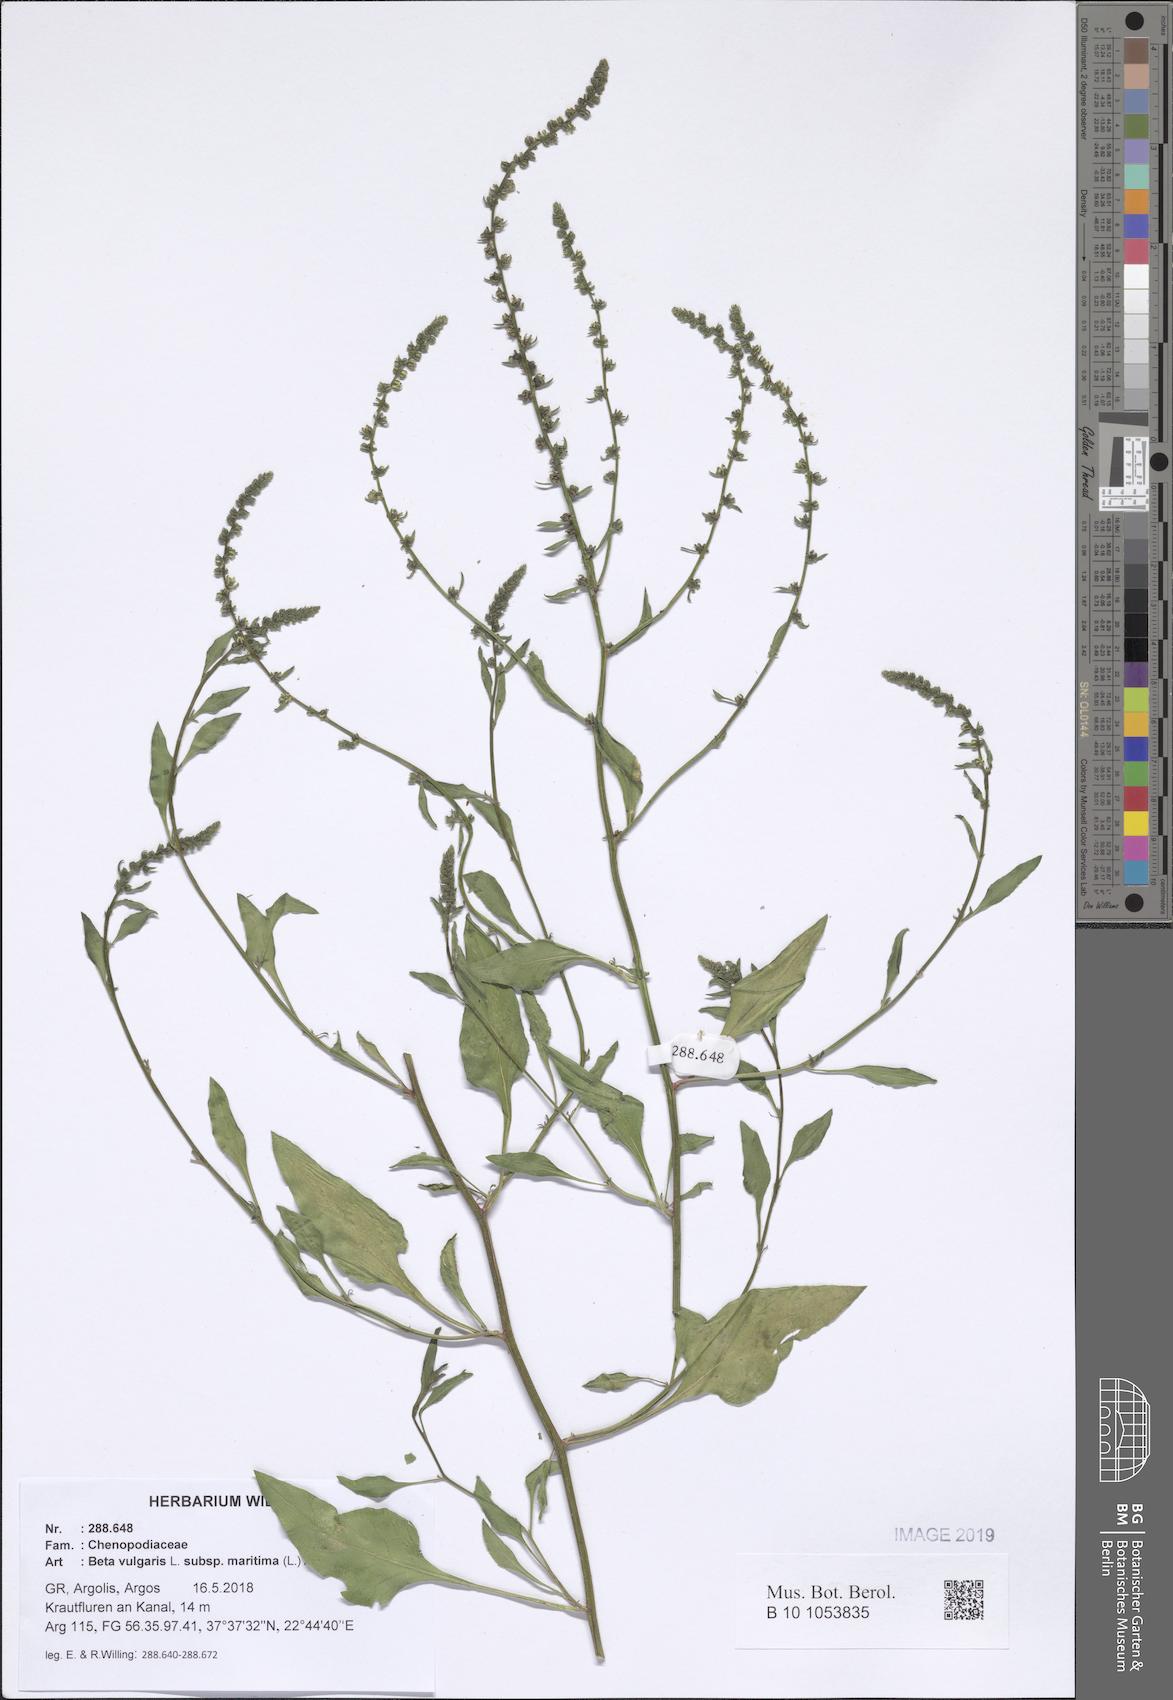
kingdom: Plantae
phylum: Tracheophyta
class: Magnoliopsida
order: Caryophyllales
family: Amaranthaceae
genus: Beta
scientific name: Beta maritima
